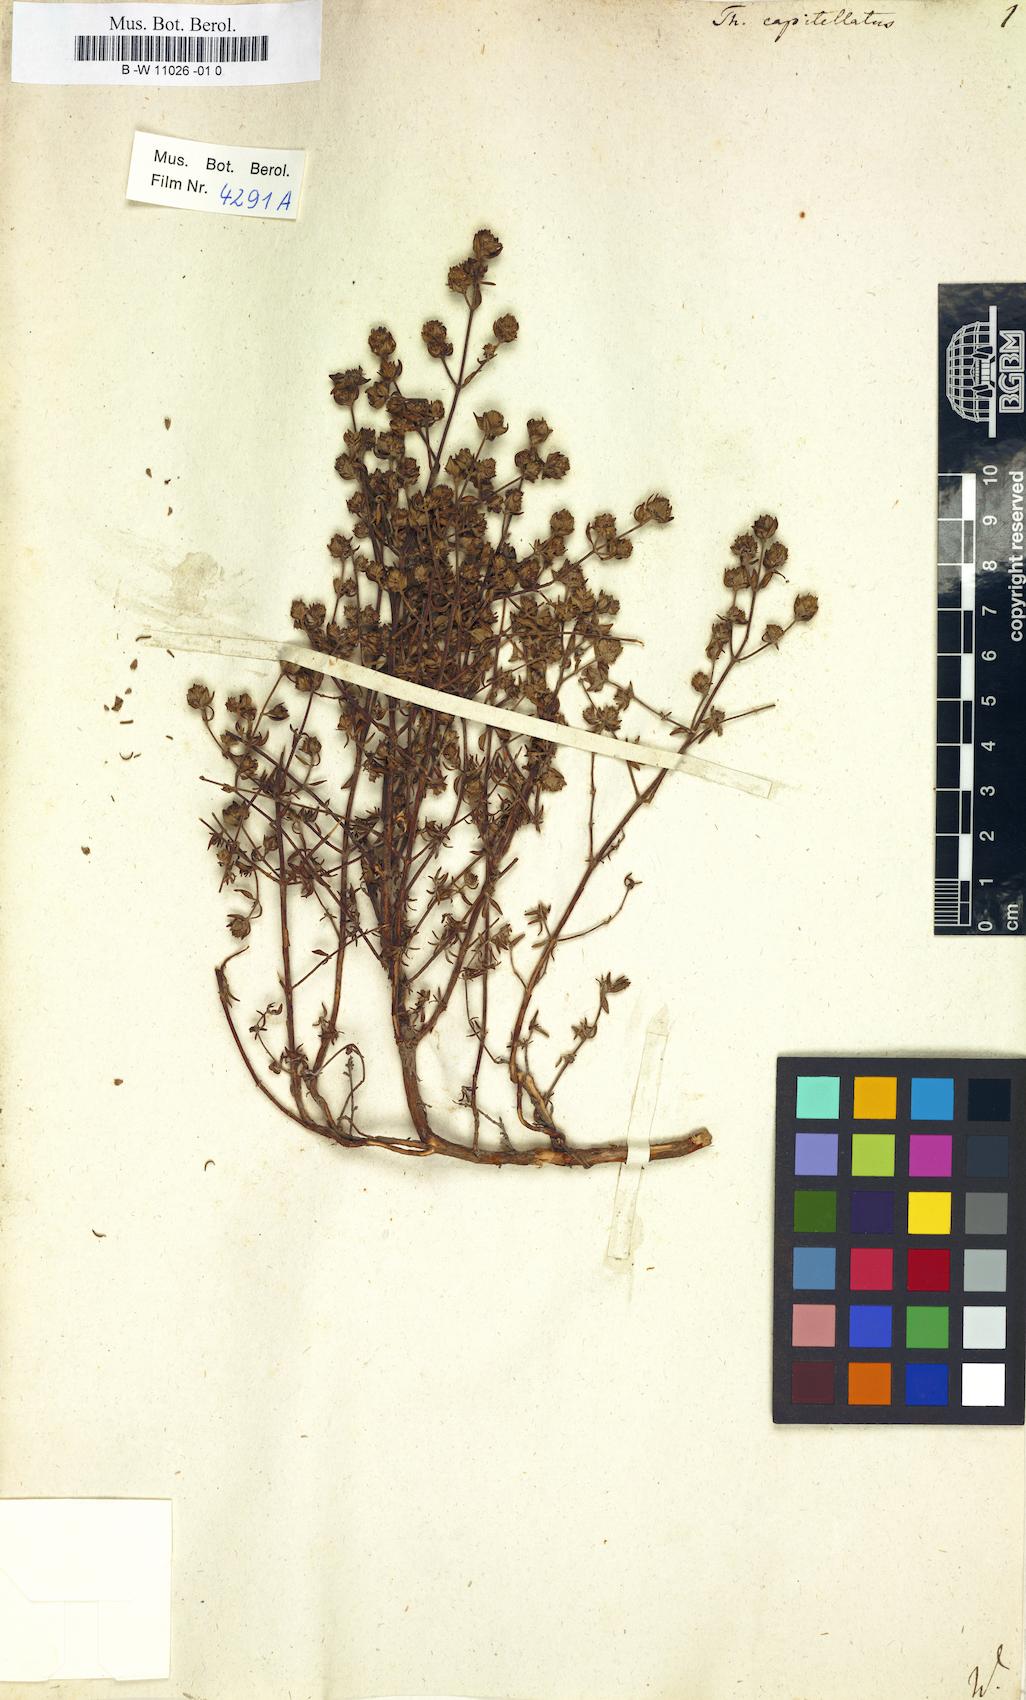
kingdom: Plantae
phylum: Tracheophyta
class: Magnoliopsida
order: Lamiales
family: Lamiaceae
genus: Thymus
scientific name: Thymus capitellatus
